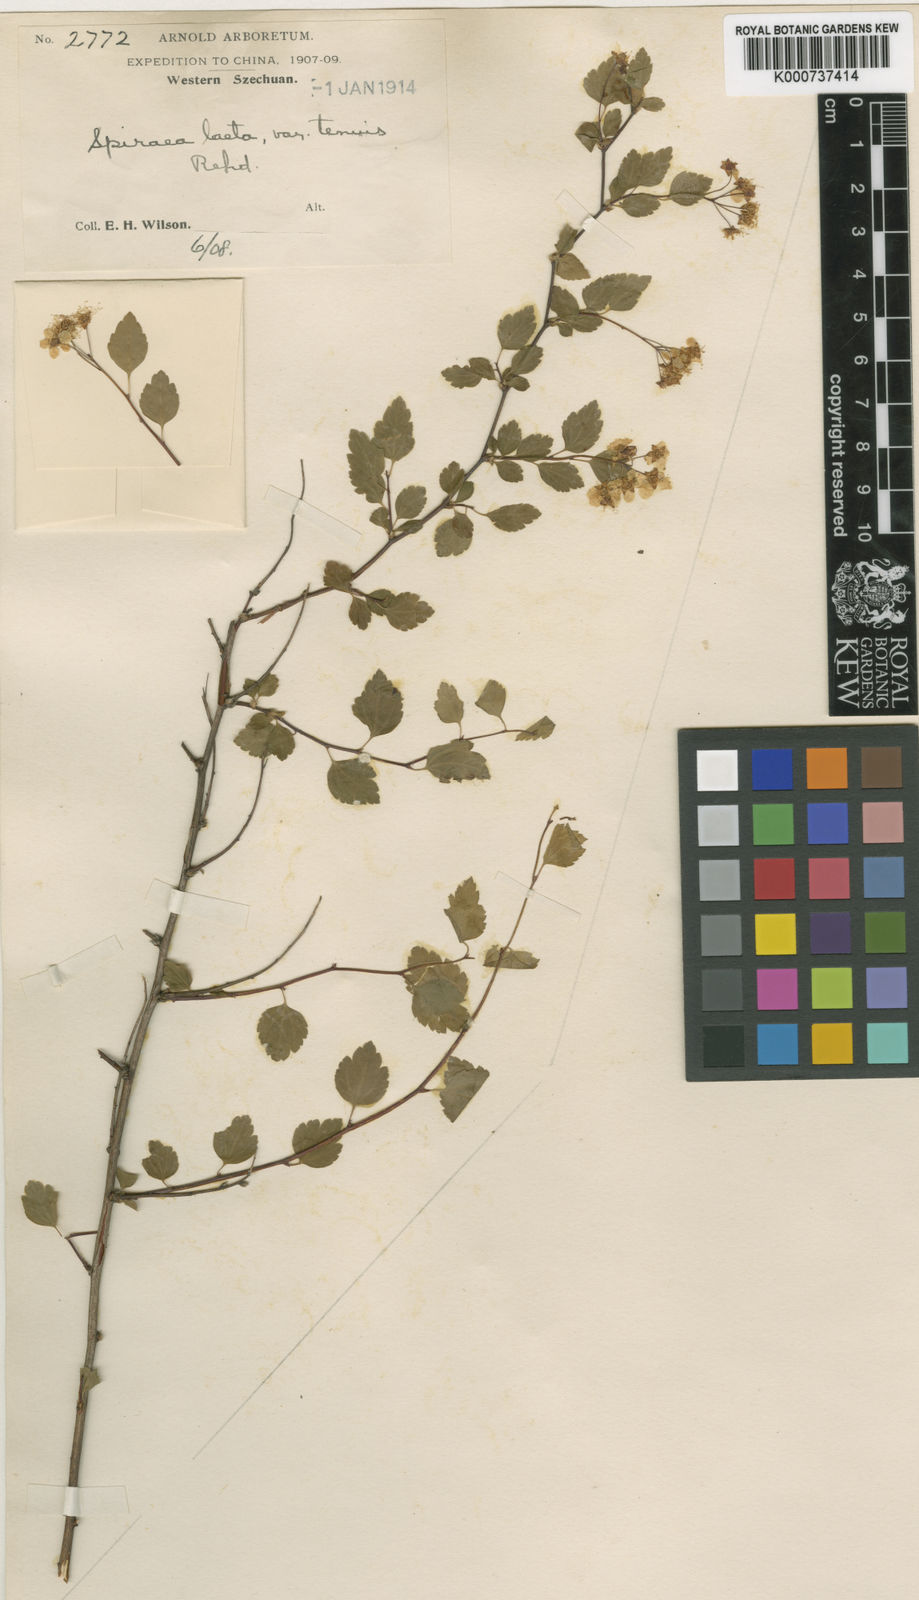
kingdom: Plantae
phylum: Tracheophyta
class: Magnoliopsida
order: Rosales
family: Rosaceae
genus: Spiraea
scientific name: Spiraea
